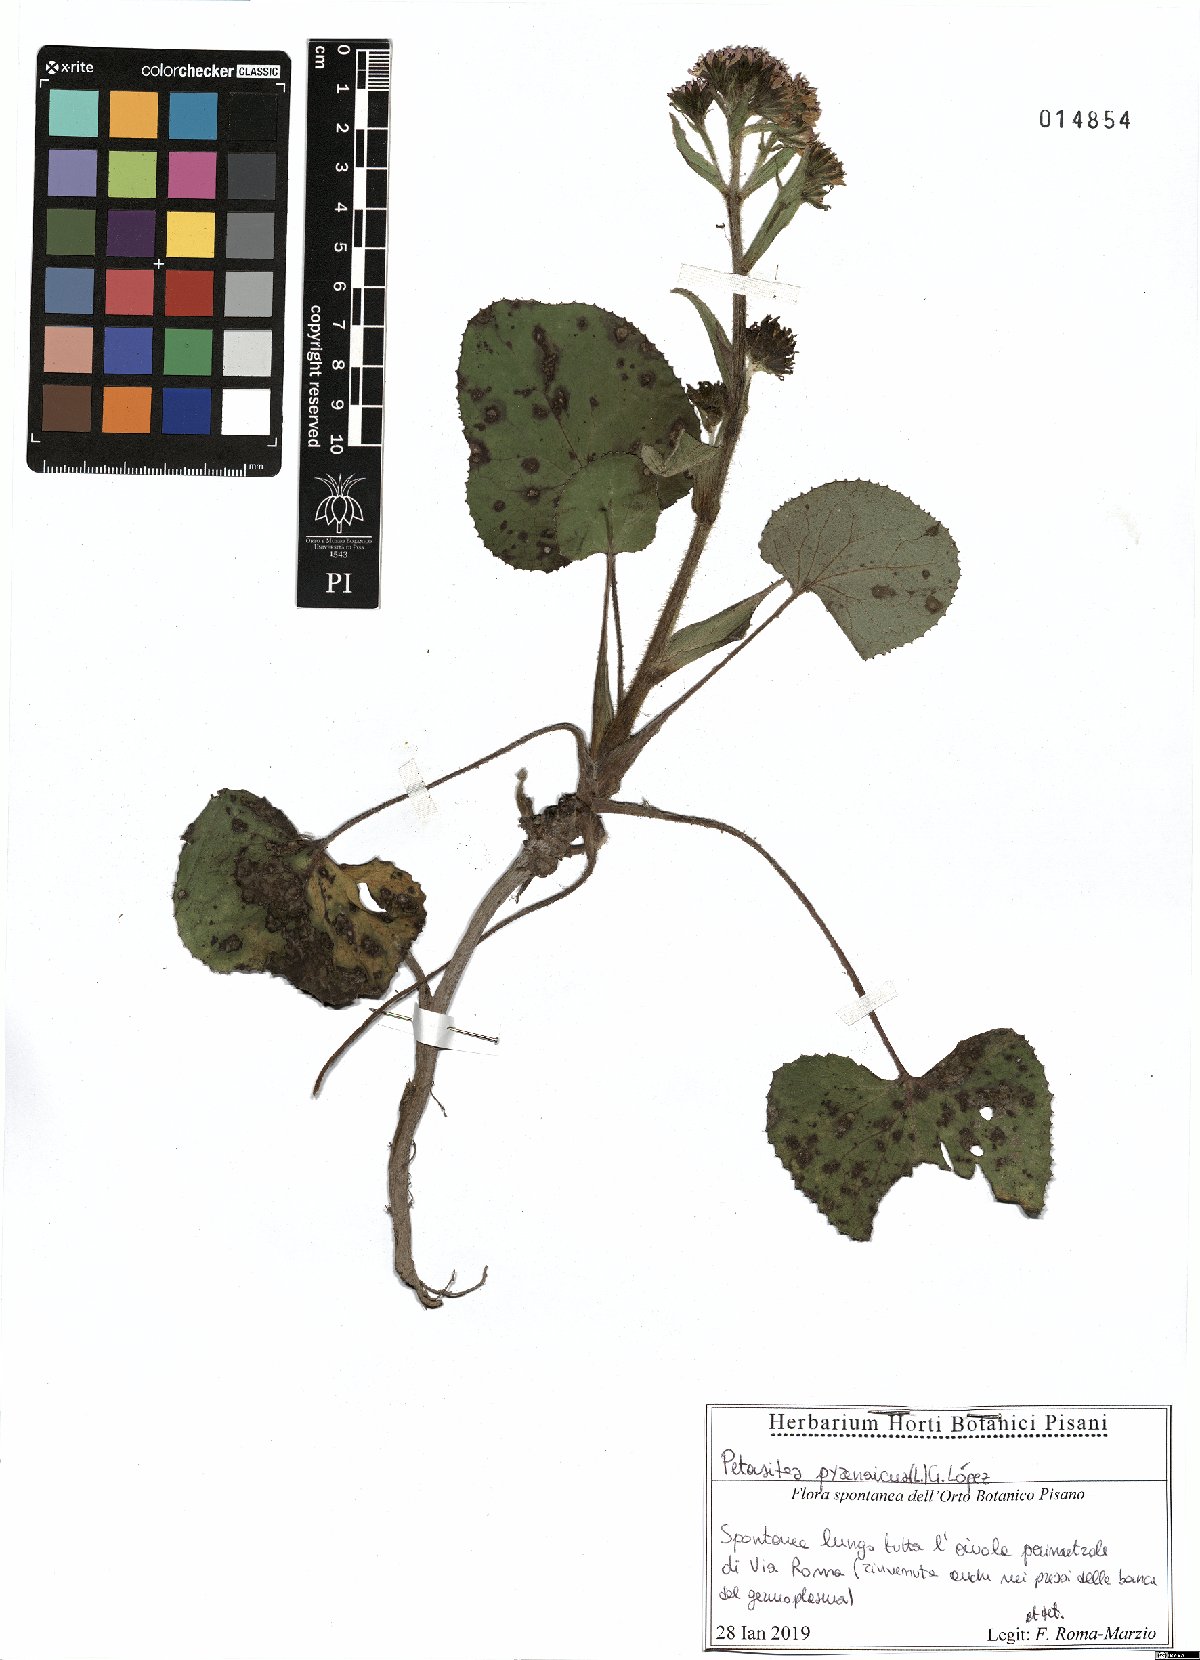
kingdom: Plantae
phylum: Tracheophyta
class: Magnoliopsida
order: Asterales
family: Asteraceae
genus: Petasites
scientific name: Petasites pyrenaicus
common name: Winter heliotrope
